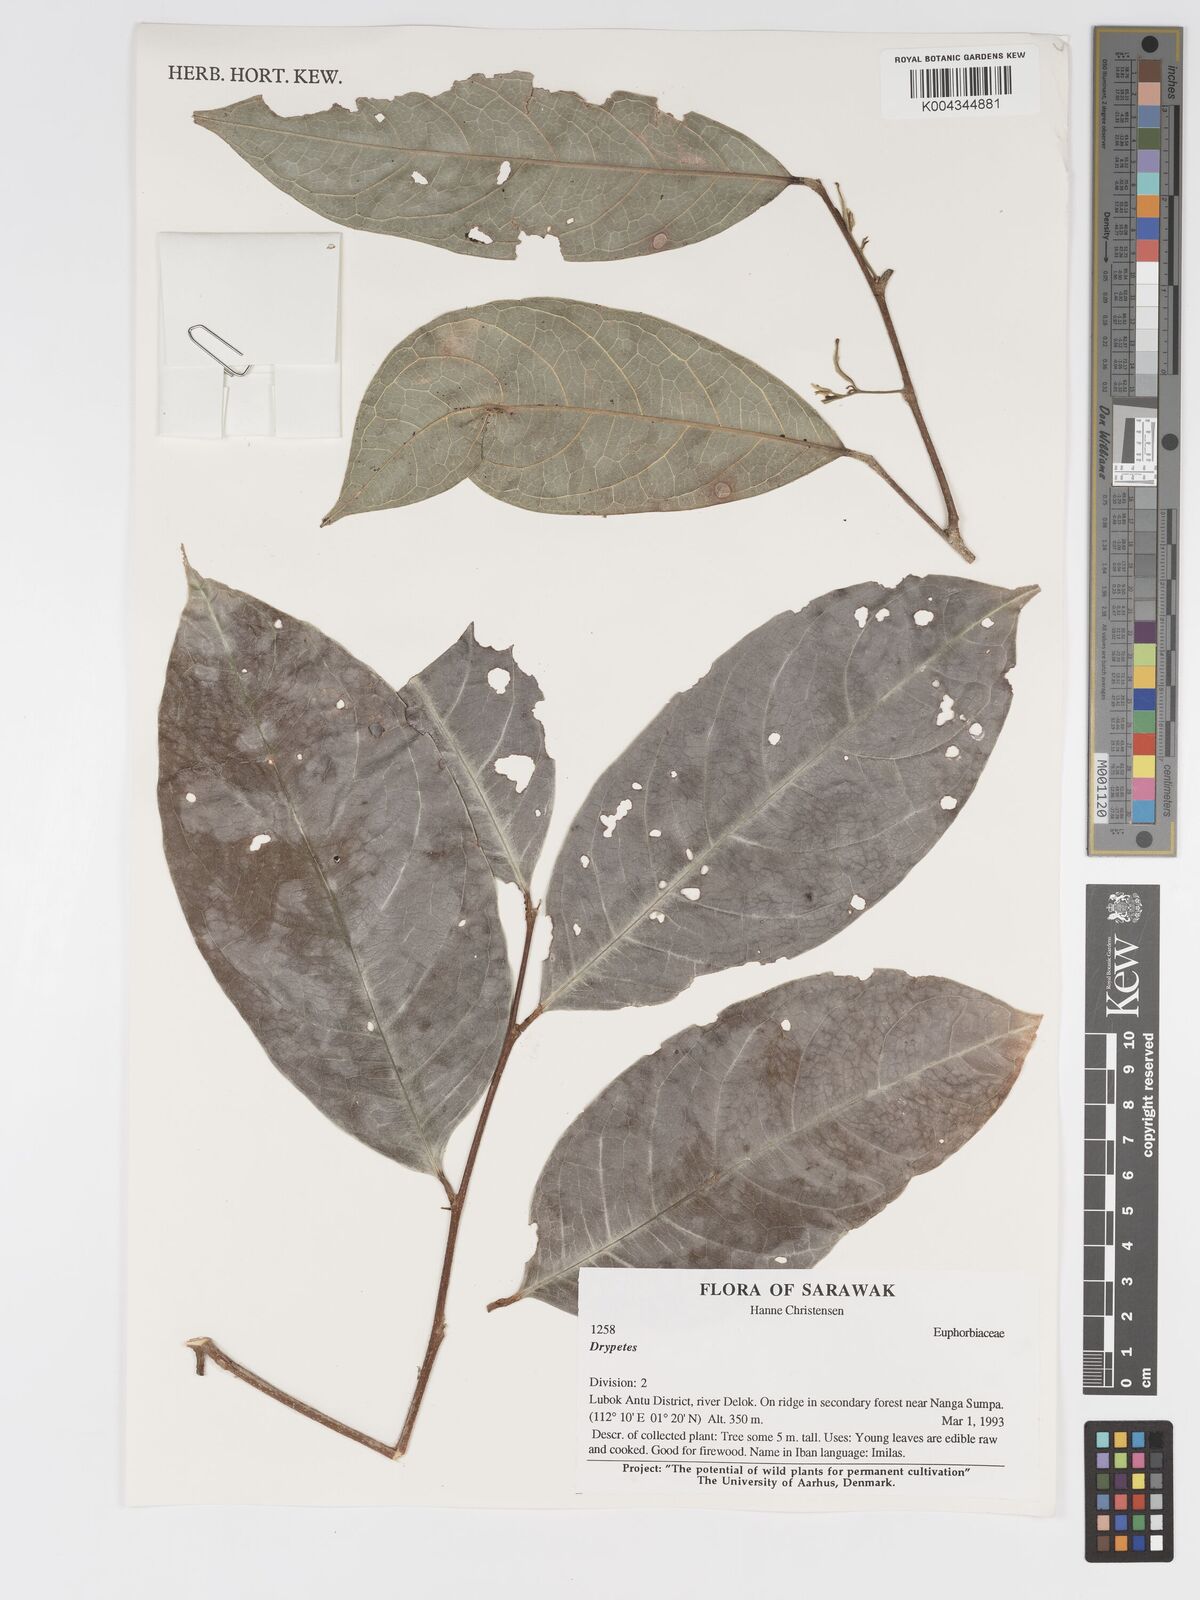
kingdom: Plantae
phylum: Tracheophyta
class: Magnoliopsida
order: Malpighiales
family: Putranjivaceae
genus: Drypetes
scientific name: Drypetes
